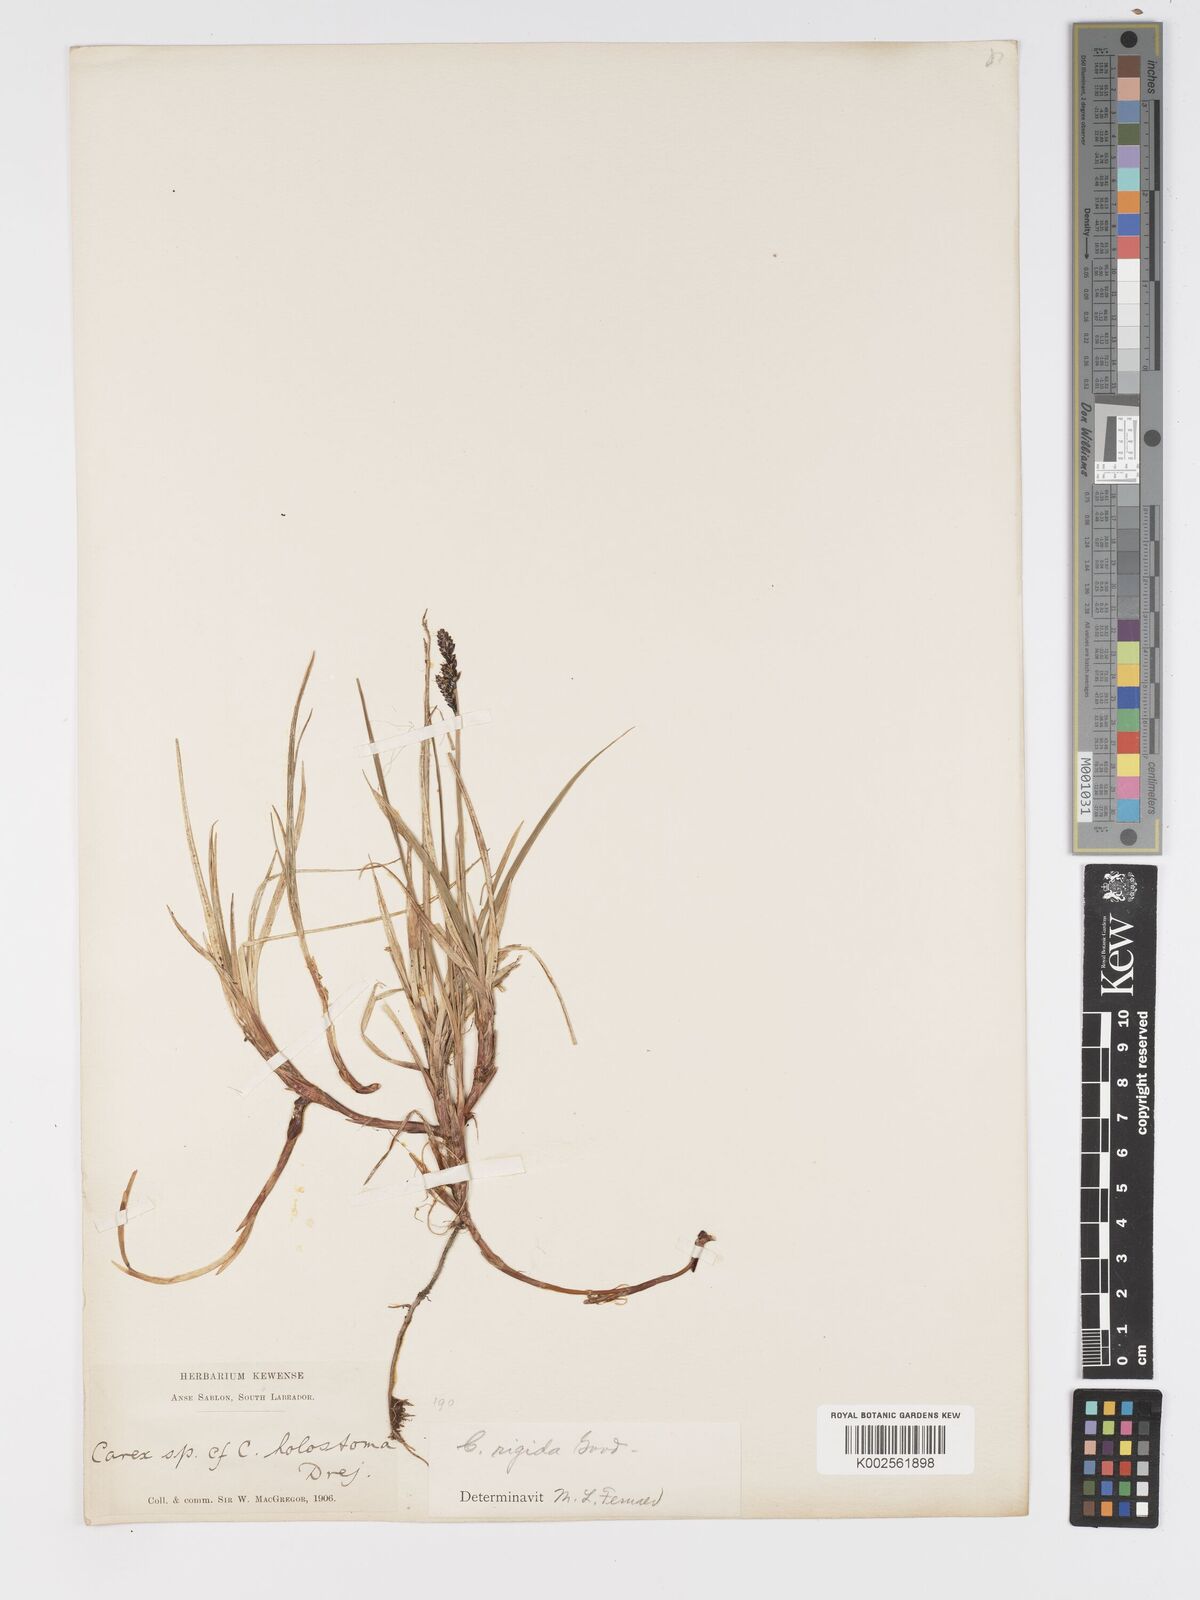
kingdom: Plantae
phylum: Tracheophyta
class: Liliopsida
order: Poales
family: Cyperaceae
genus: Carex
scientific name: Carex bigelowii
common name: Stiff sedge
